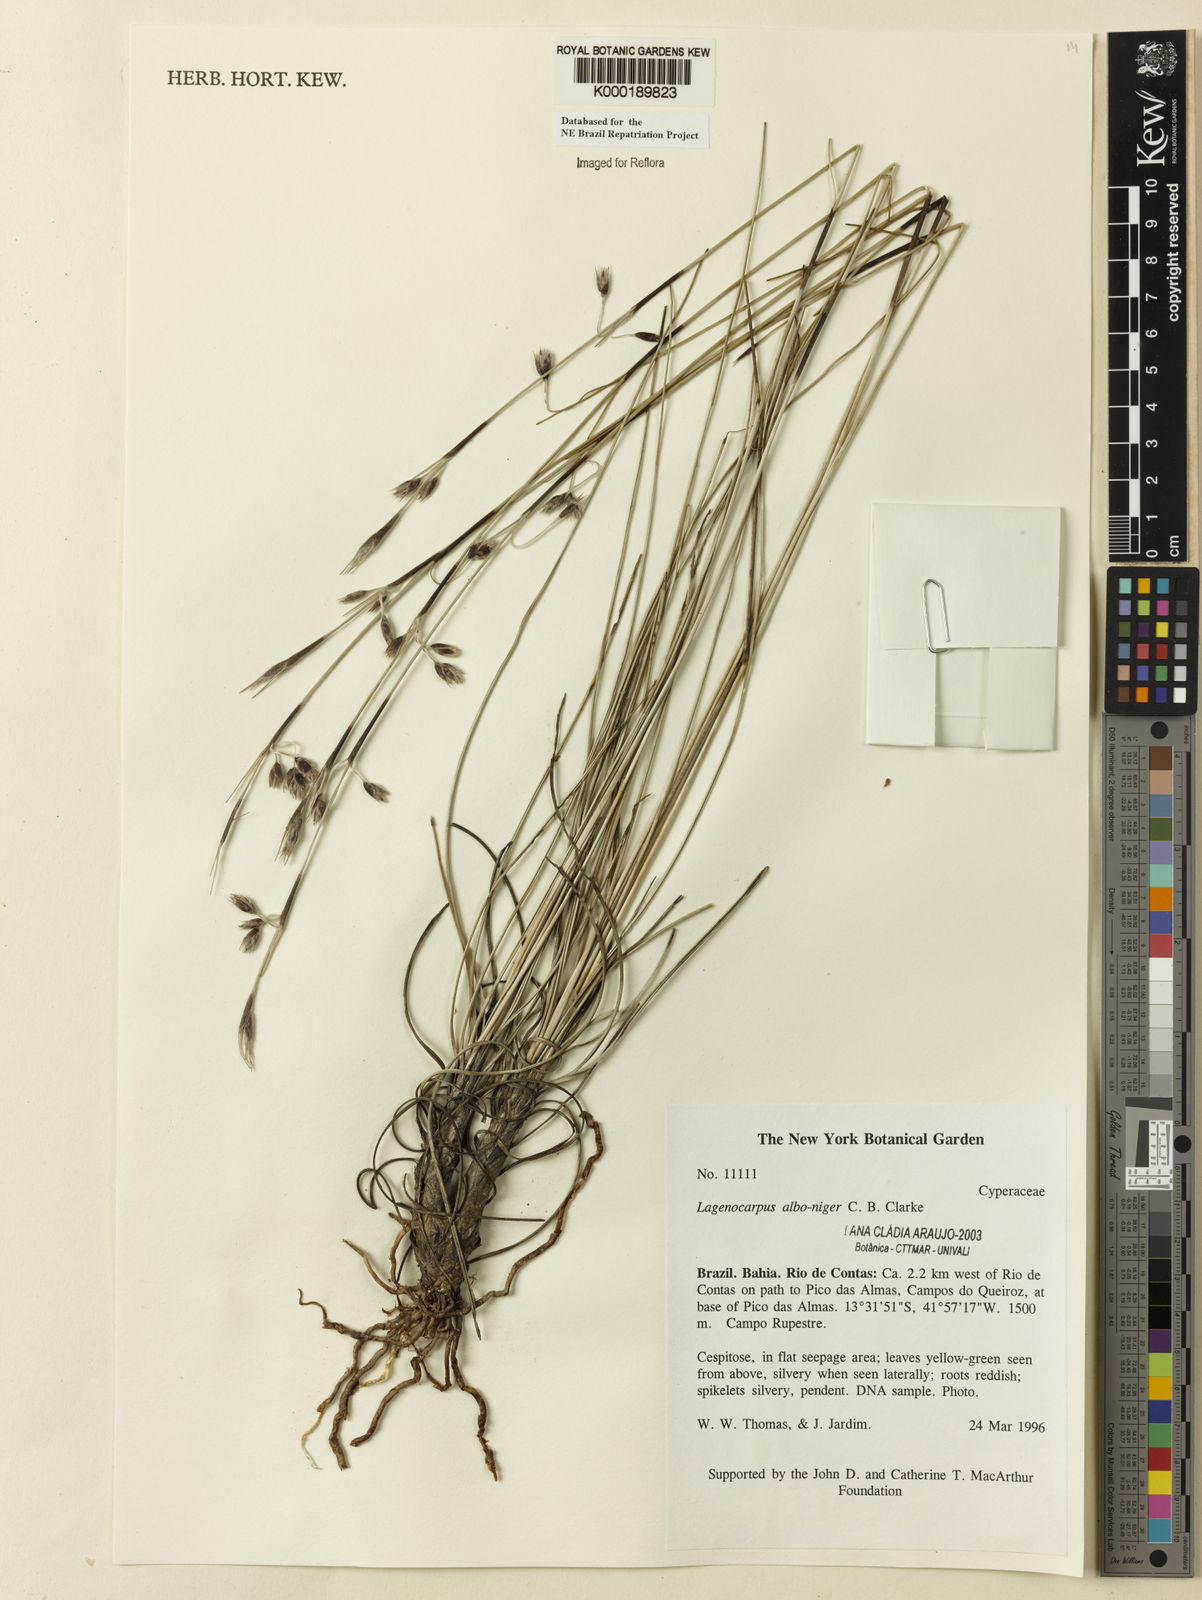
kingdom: Plantae
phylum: Tracheophyta
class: Liliopsida
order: Poales
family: Cyperaceae
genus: Lagenocarpus
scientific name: Lagenocarpus alboniger
